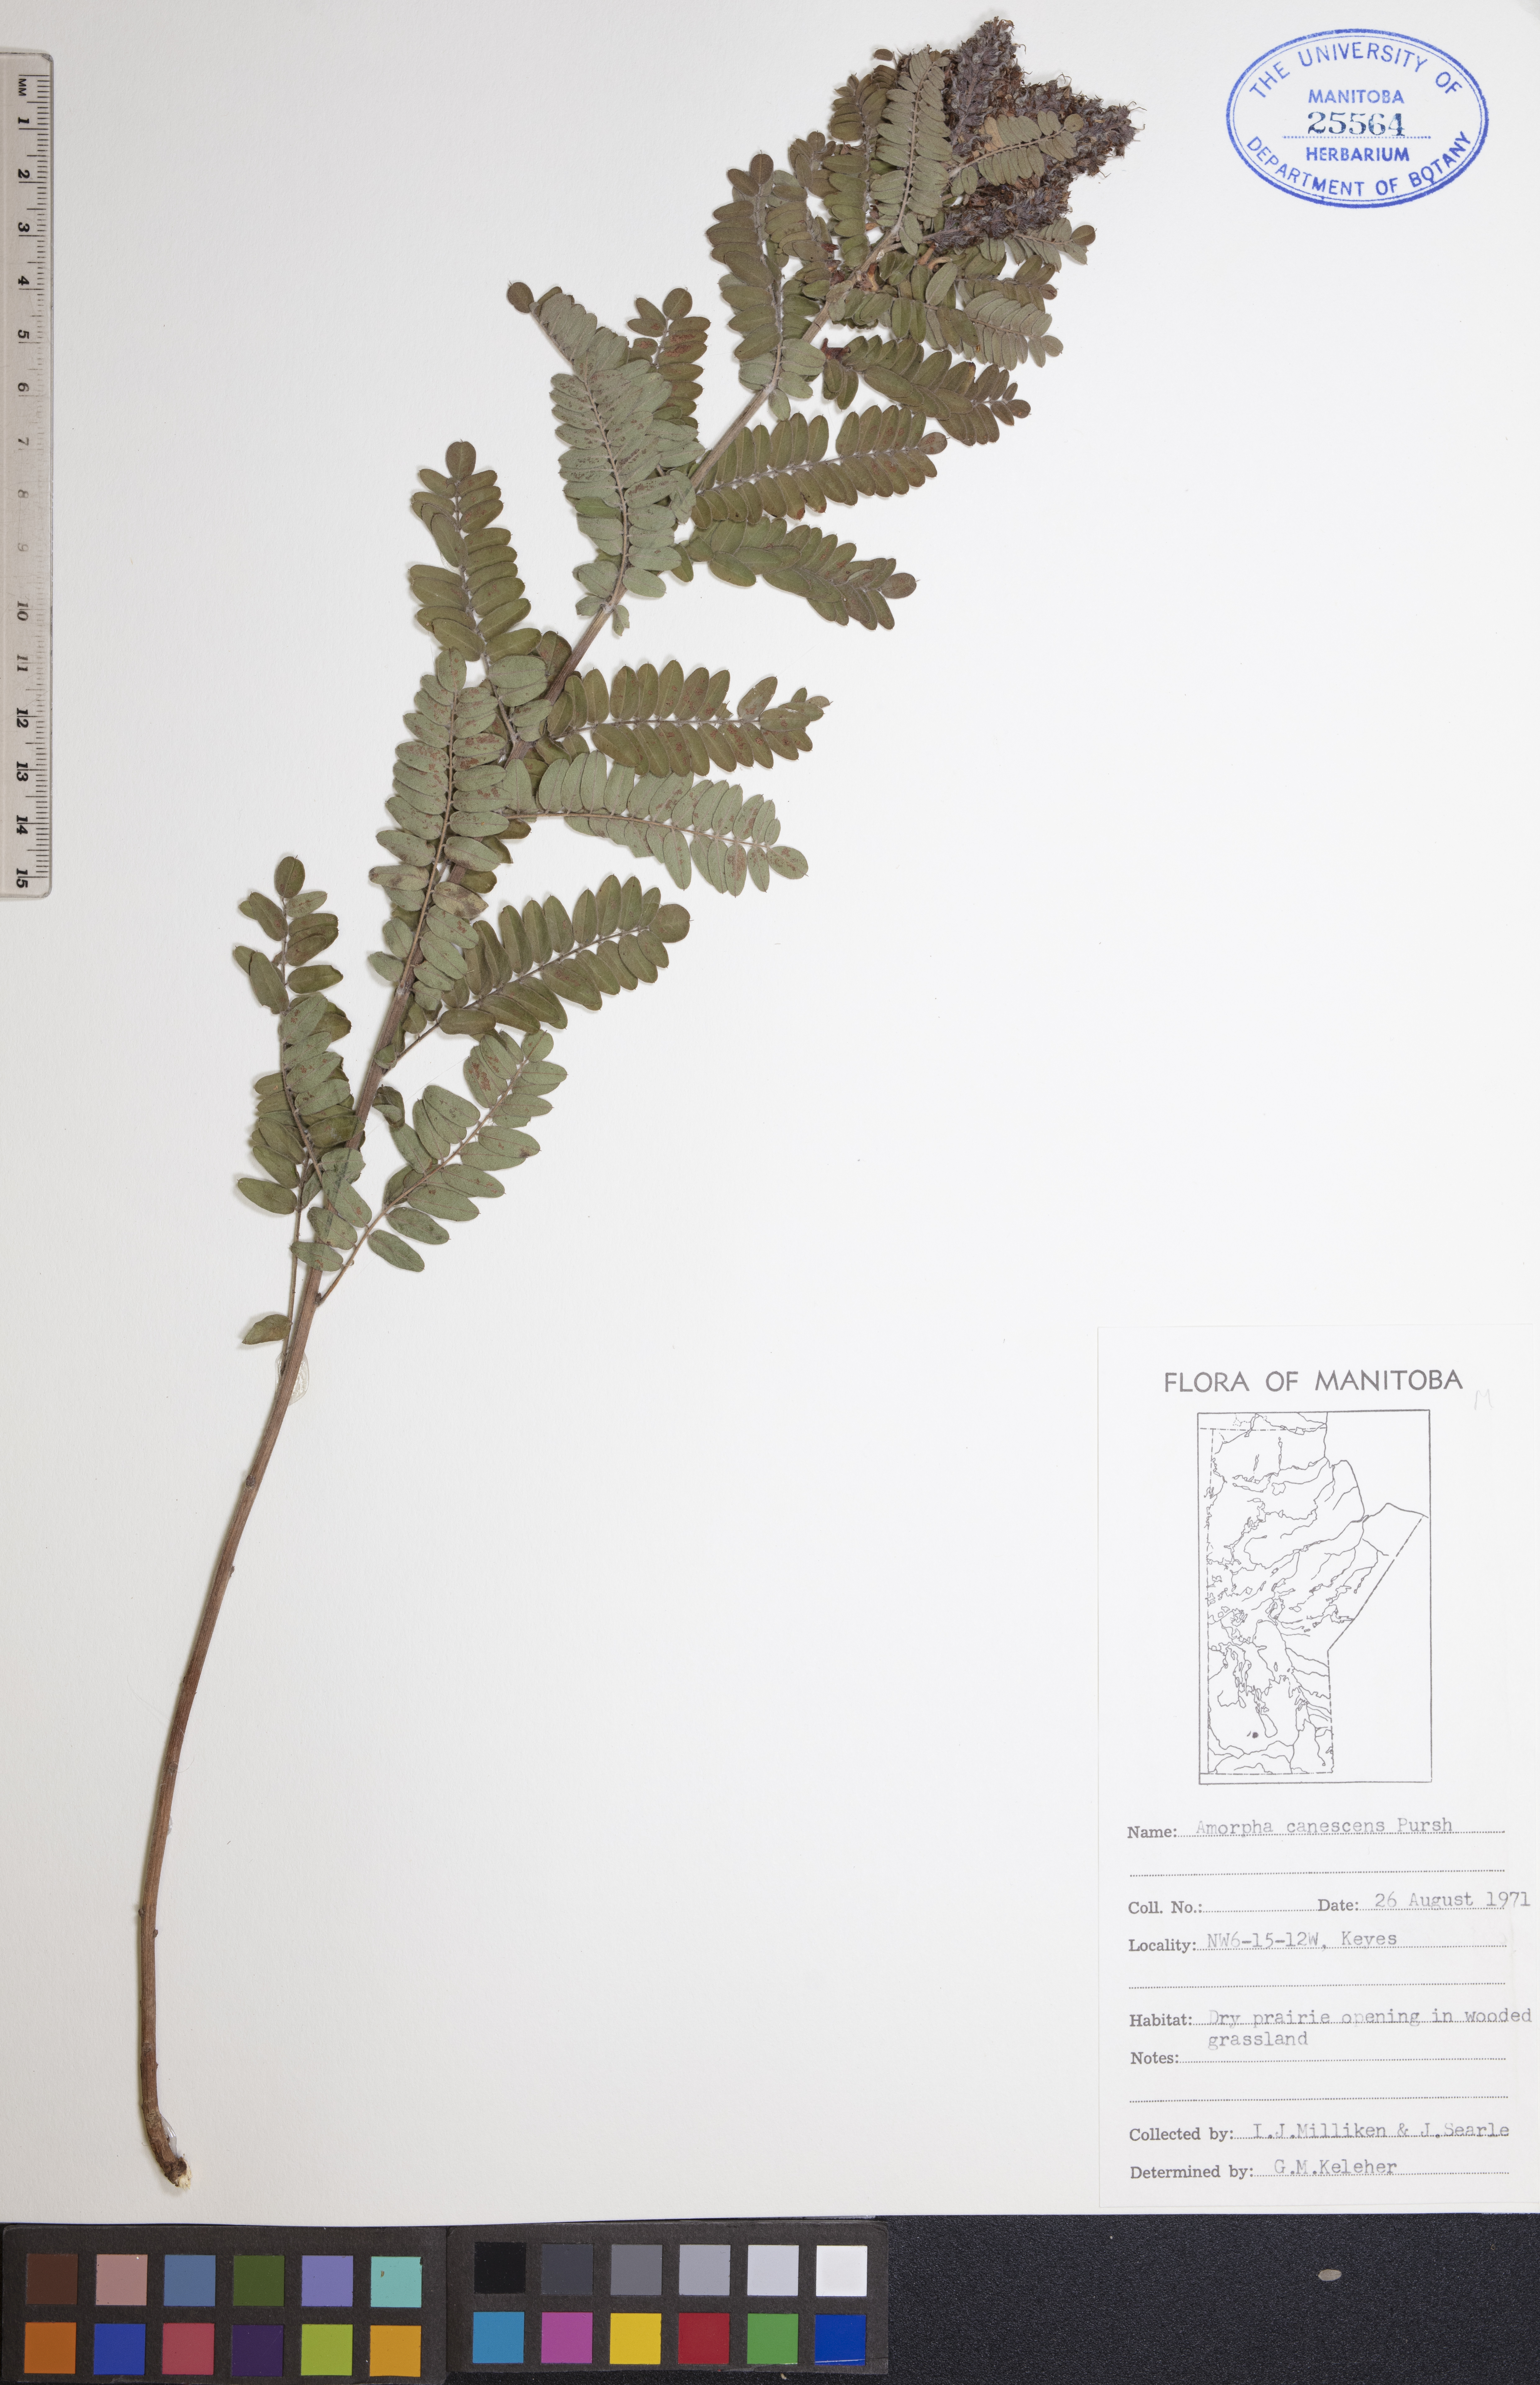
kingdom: Plantae
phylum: Tracheophyta
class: Magnoliopsida
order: Fabales
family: Fabaceae
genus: Amorpha
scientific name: Amorpha canescens
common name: Leadplant
